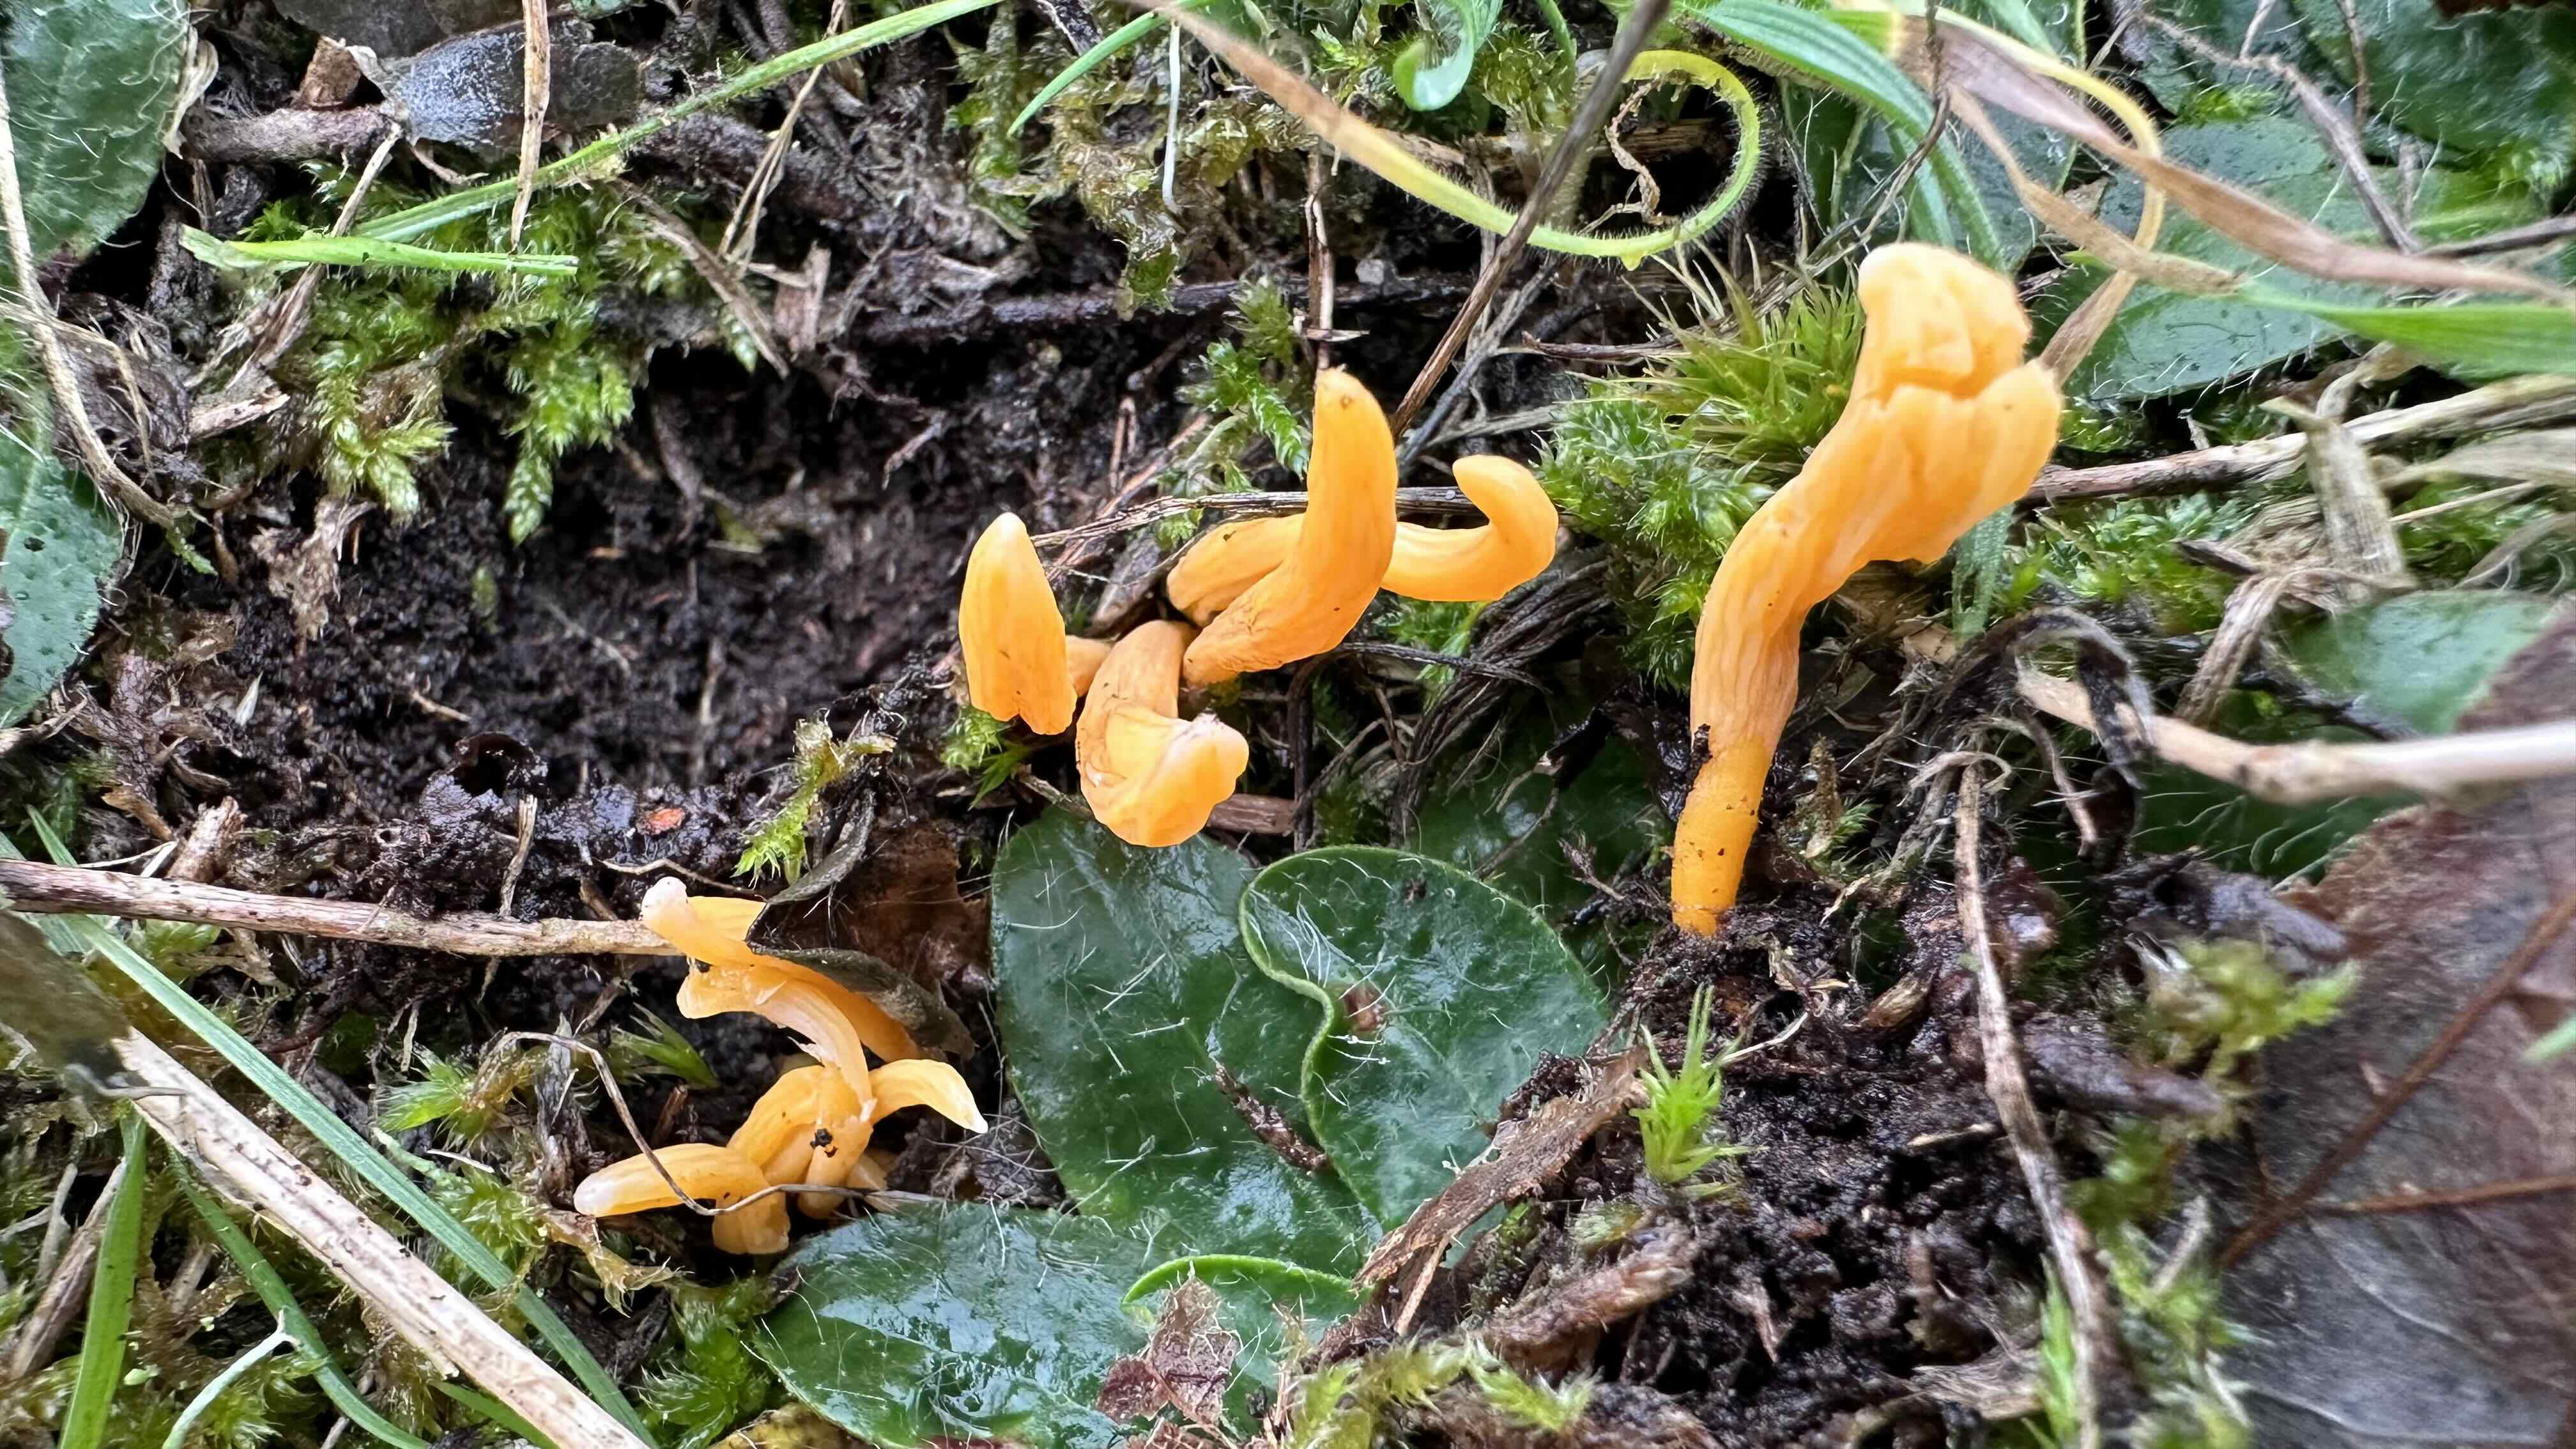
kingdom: Fungi
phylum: Basidiomycota
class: Agaricomycetes
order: Agaricales
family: Clavariaceae
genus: Clavulinopsis
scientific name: Clavulinopsis luteoalba
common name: abrikos-køllesvamp
